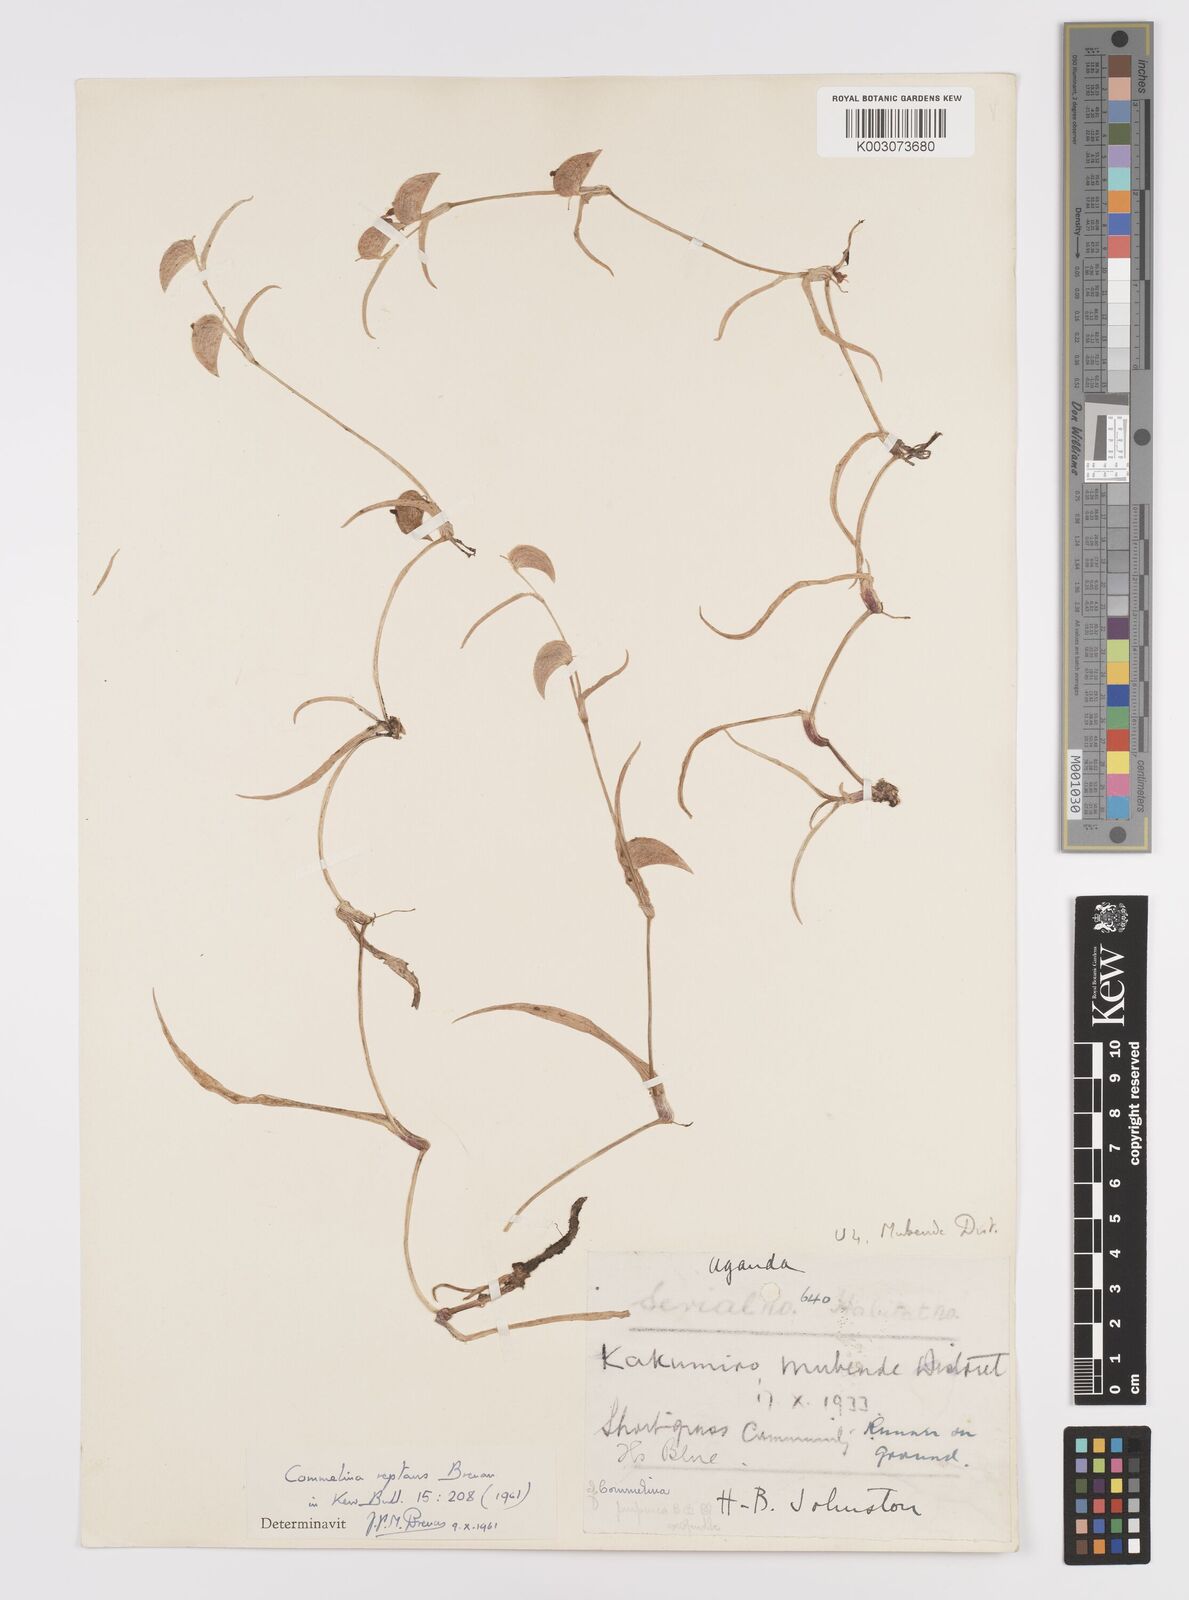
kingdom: Plantae
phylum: Tracheophyta
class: Liliopsida
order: Commelinales
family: Commelinaceae
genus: Commelina
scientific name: Commelina reptans
